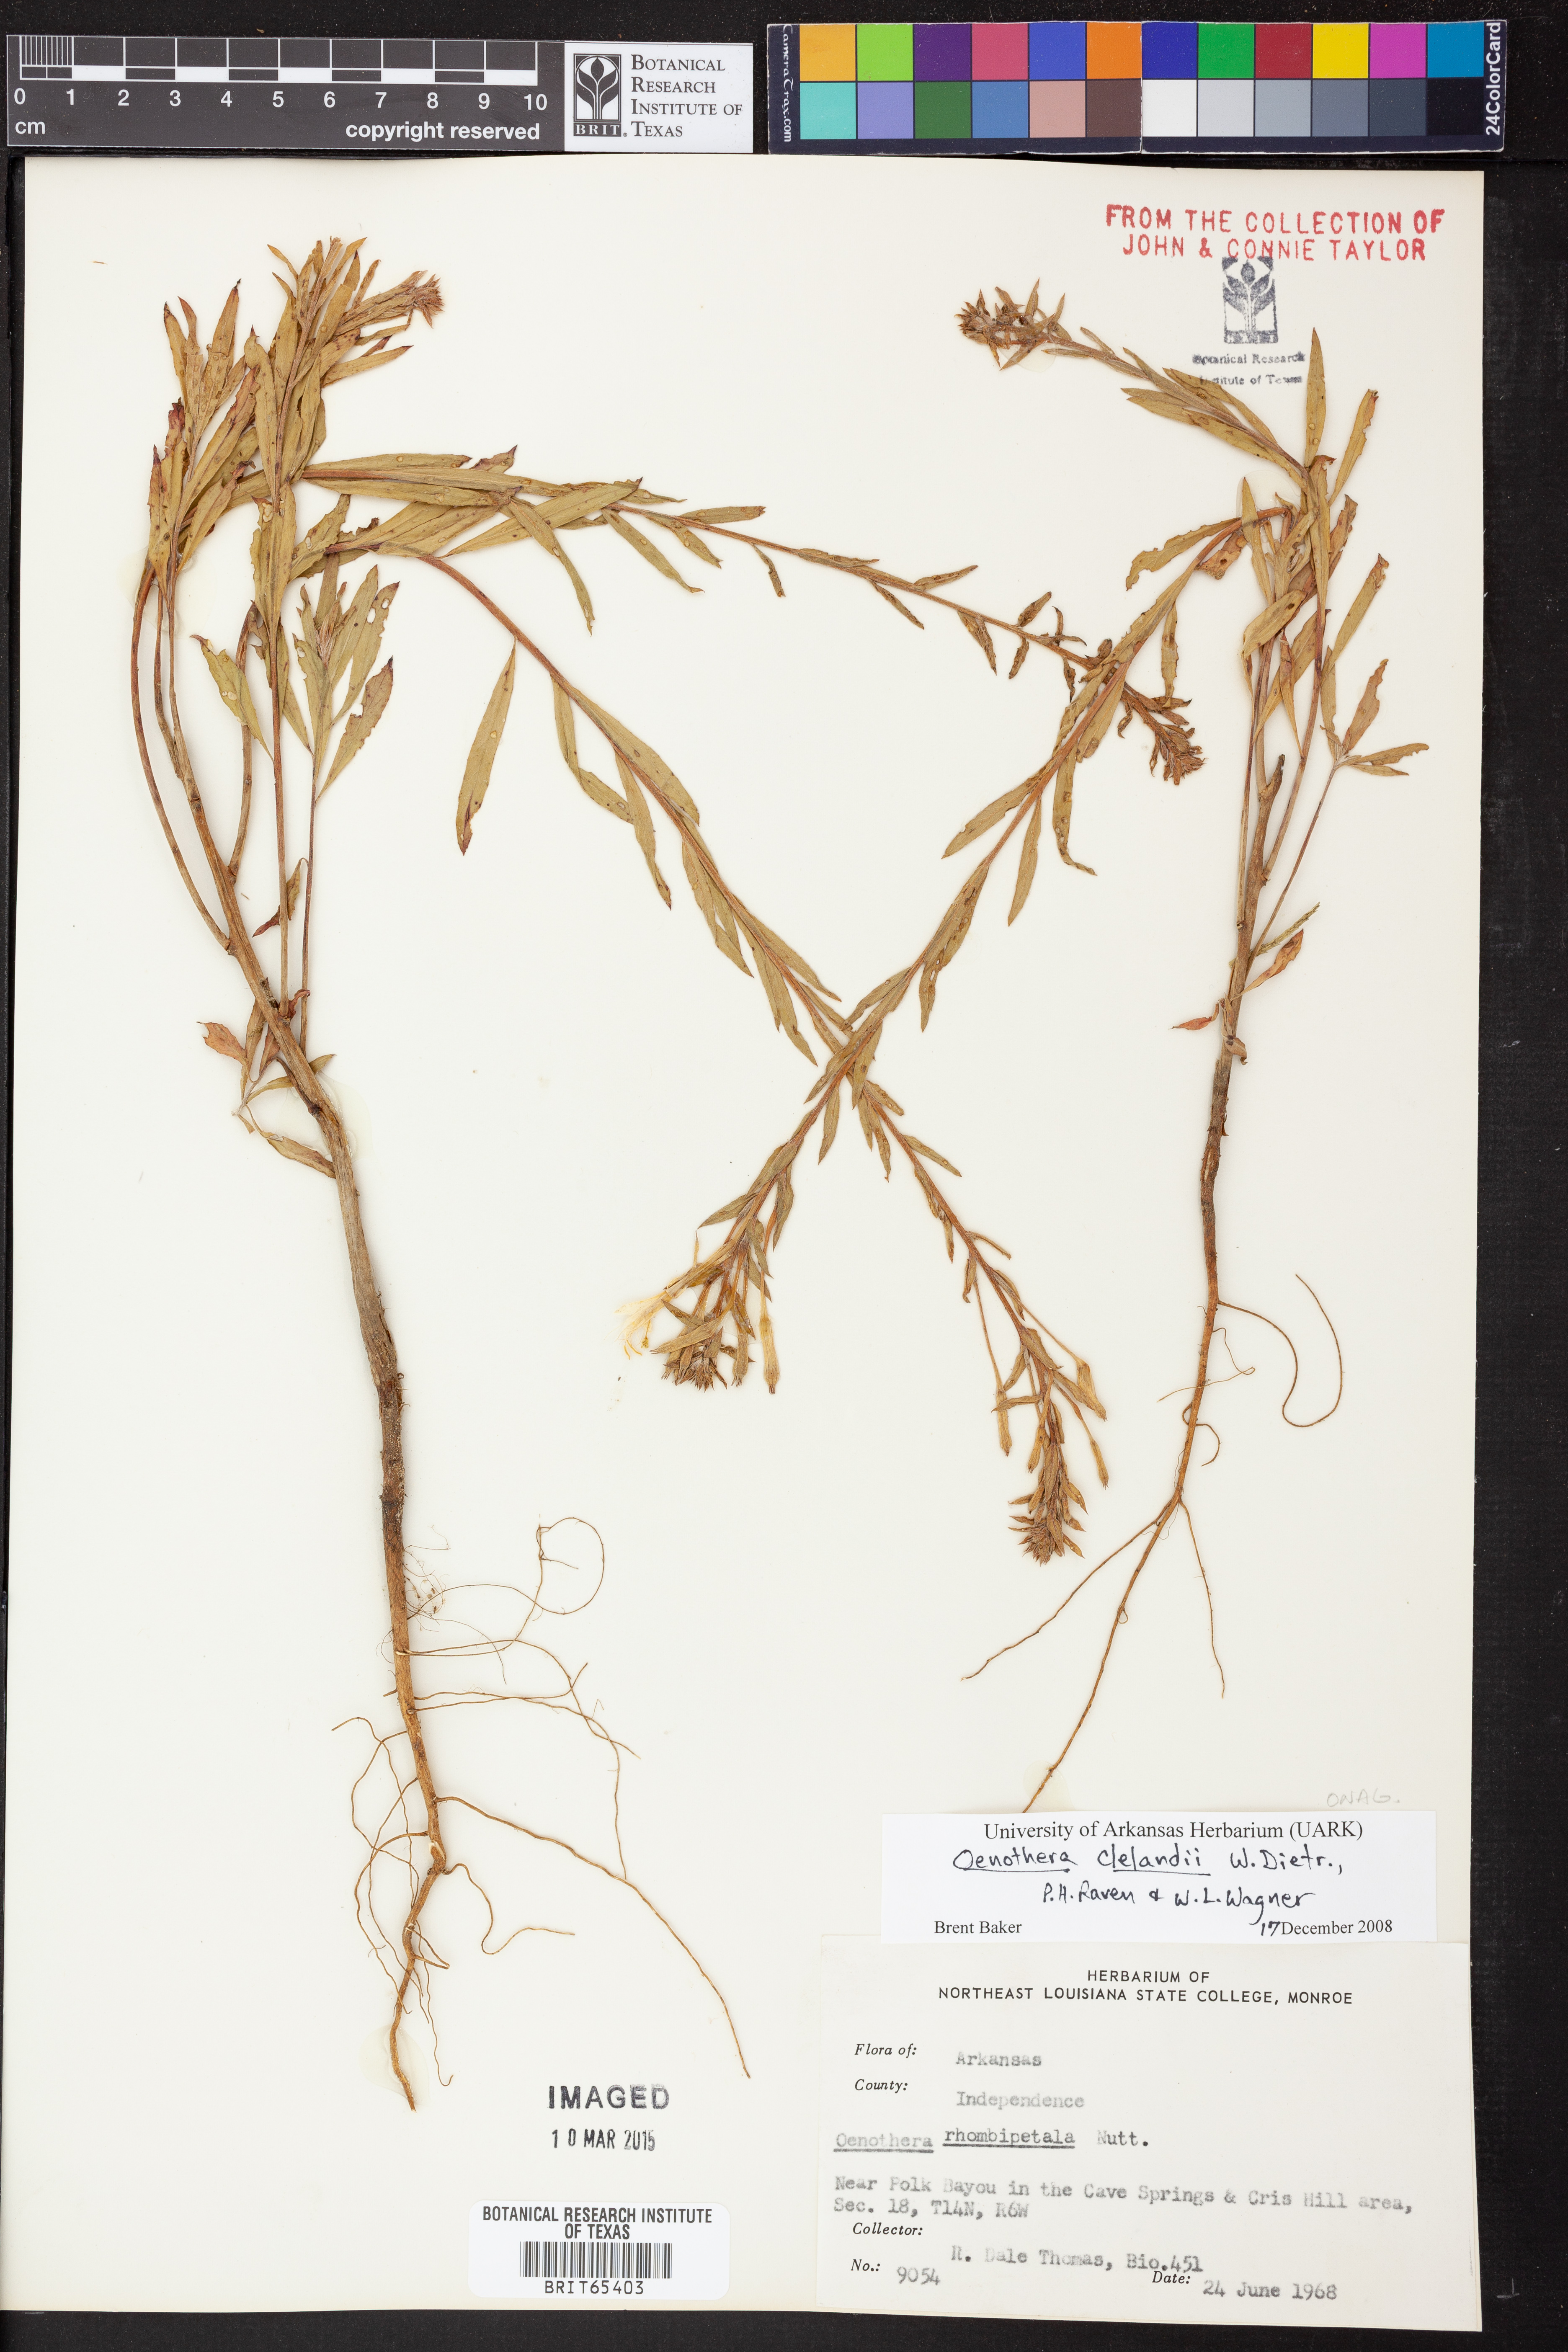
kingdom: Plantae
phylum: Tracheophyta
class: Magnoliopsida
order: Myrtales
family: Onagraceae
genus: Oenothera
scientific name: Oenothera clelandii
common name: Cleland's evening-primrose
